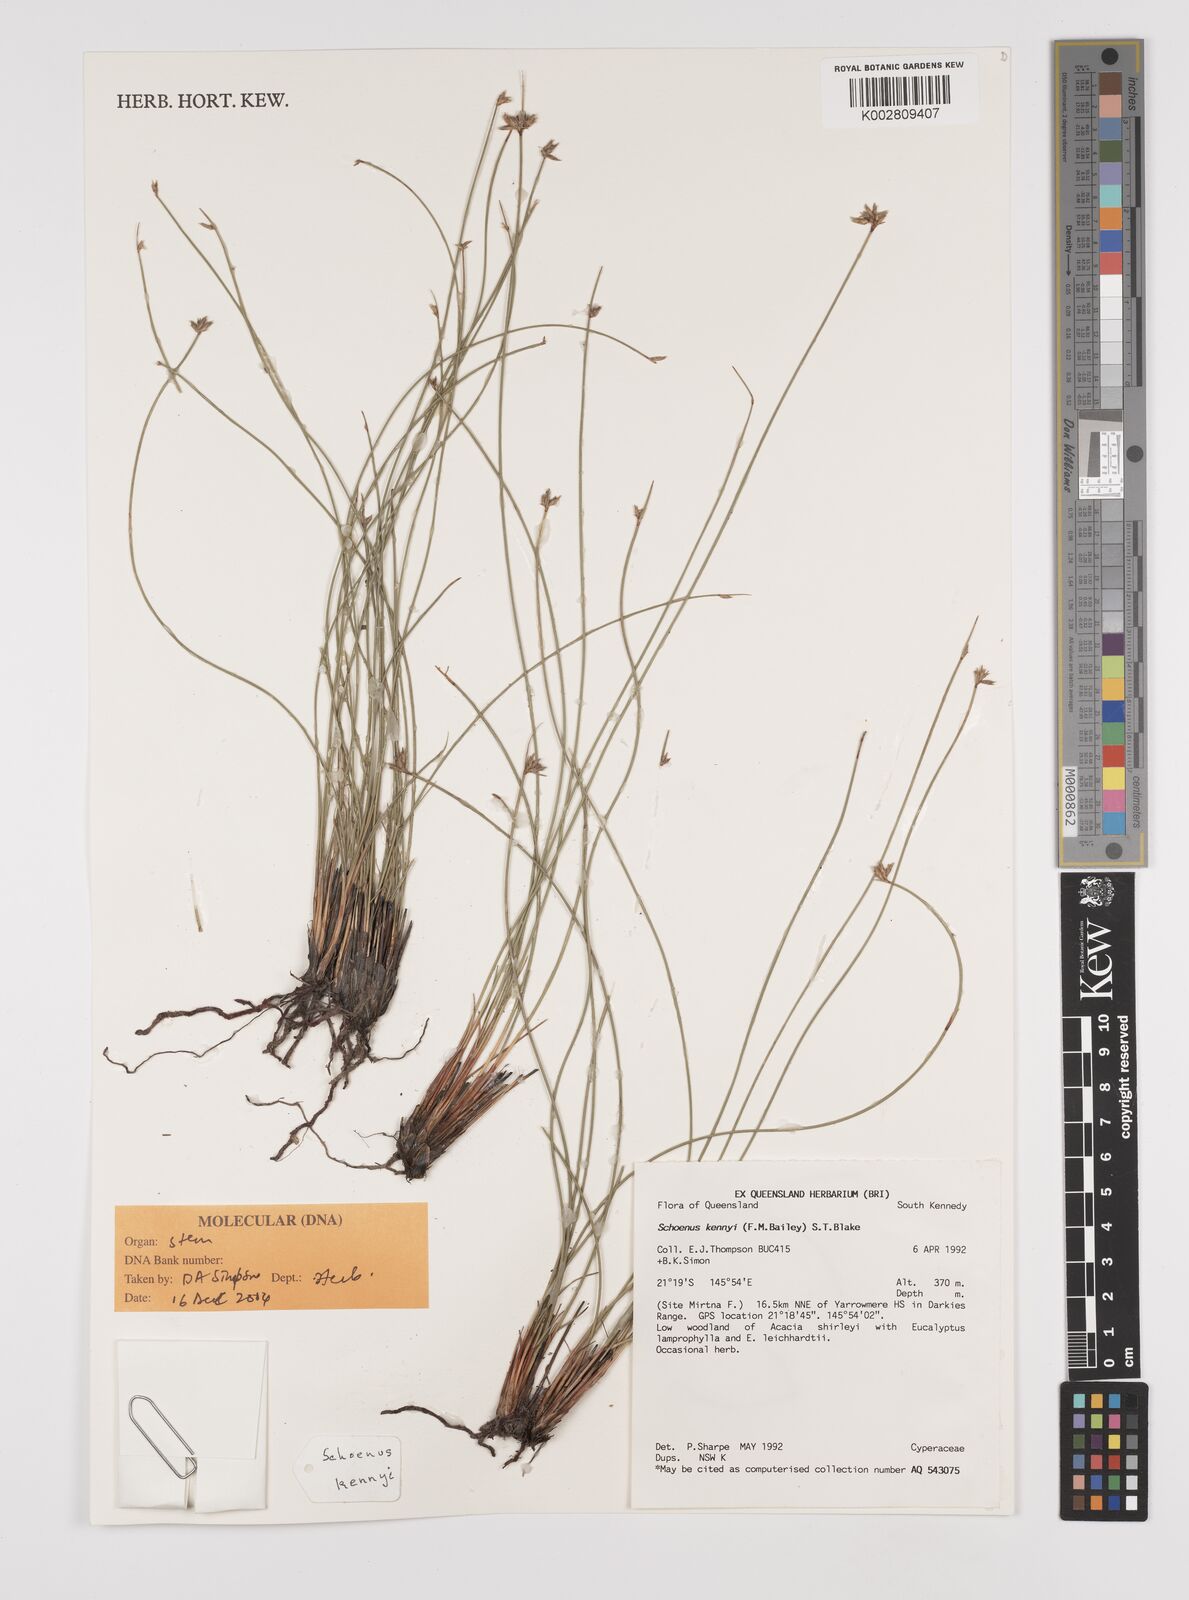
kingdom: Plantae
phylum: Tracheophyta
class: Liliopsida
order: Poales
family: Cyperaceae
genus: Schoenus
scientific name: Schoenus kennyi
